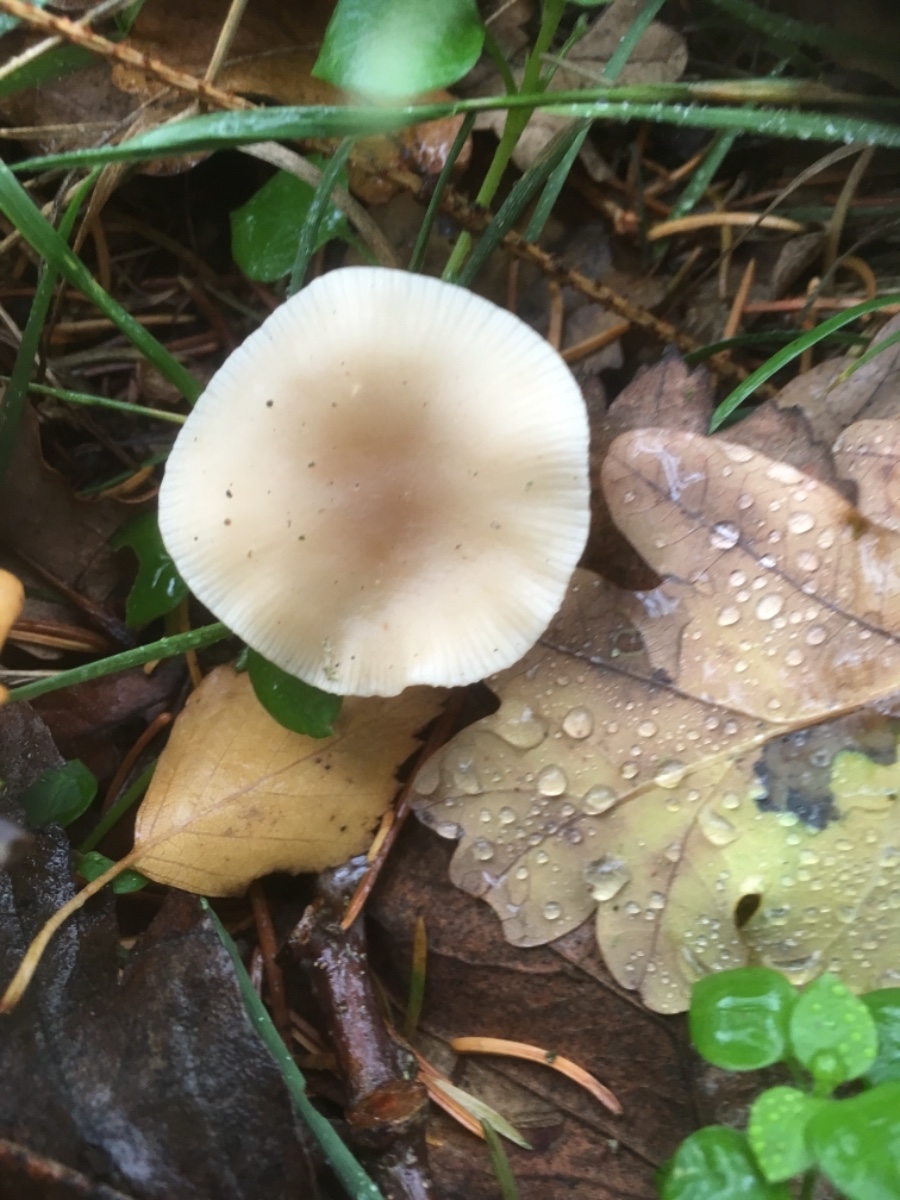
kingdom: Fungi
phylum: Basidiomycota
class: Agaricomycetes
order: Agaricales
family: Tricholomataceae
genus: Clitocybe
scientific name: Clitocybe fragrans
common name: vellugtende tragthat
